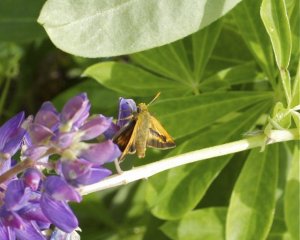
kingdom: Animalia
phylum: Arthropoda
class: Insecta
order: Lepidoptera
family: Hesperiidae
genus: Polites
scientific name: Polites
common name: Long Dash Skipper
